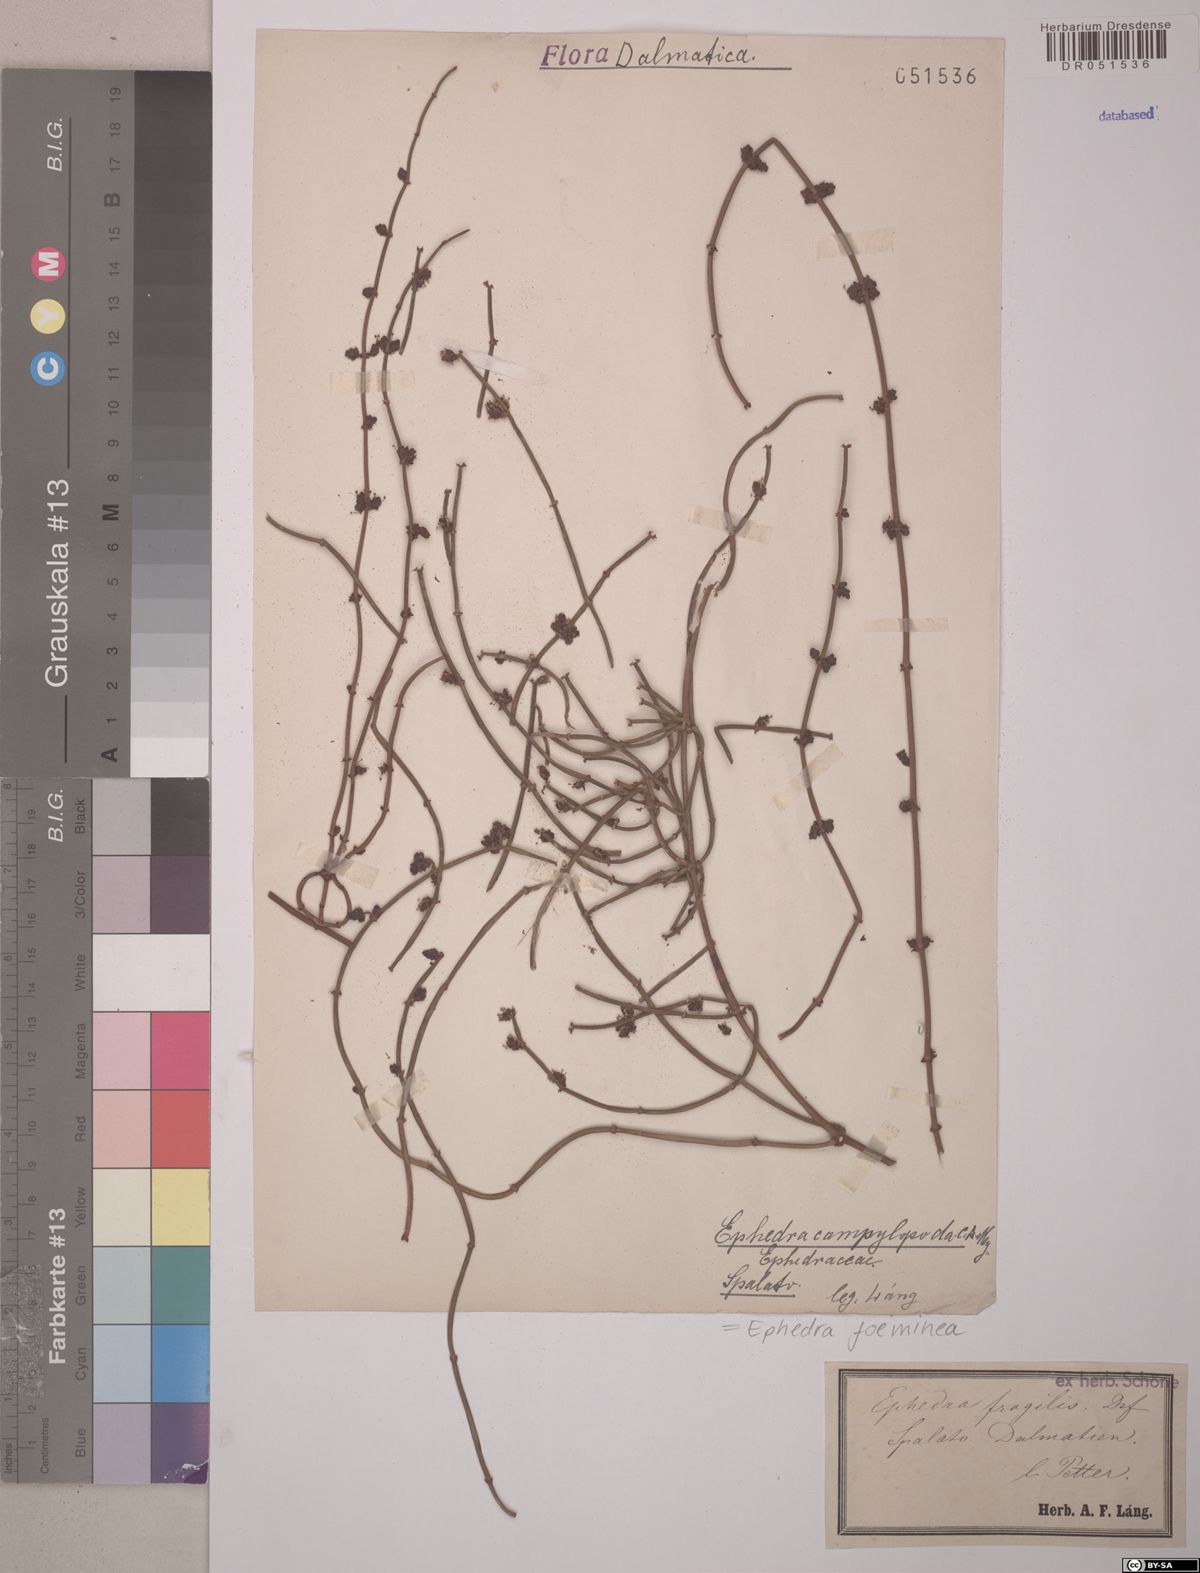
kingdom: Plantae
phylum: Tracheophyta
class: Gnetopsida
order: Ephedrales
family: Ephedraceae
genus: Ephedra
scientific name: Ephedra foeminea
